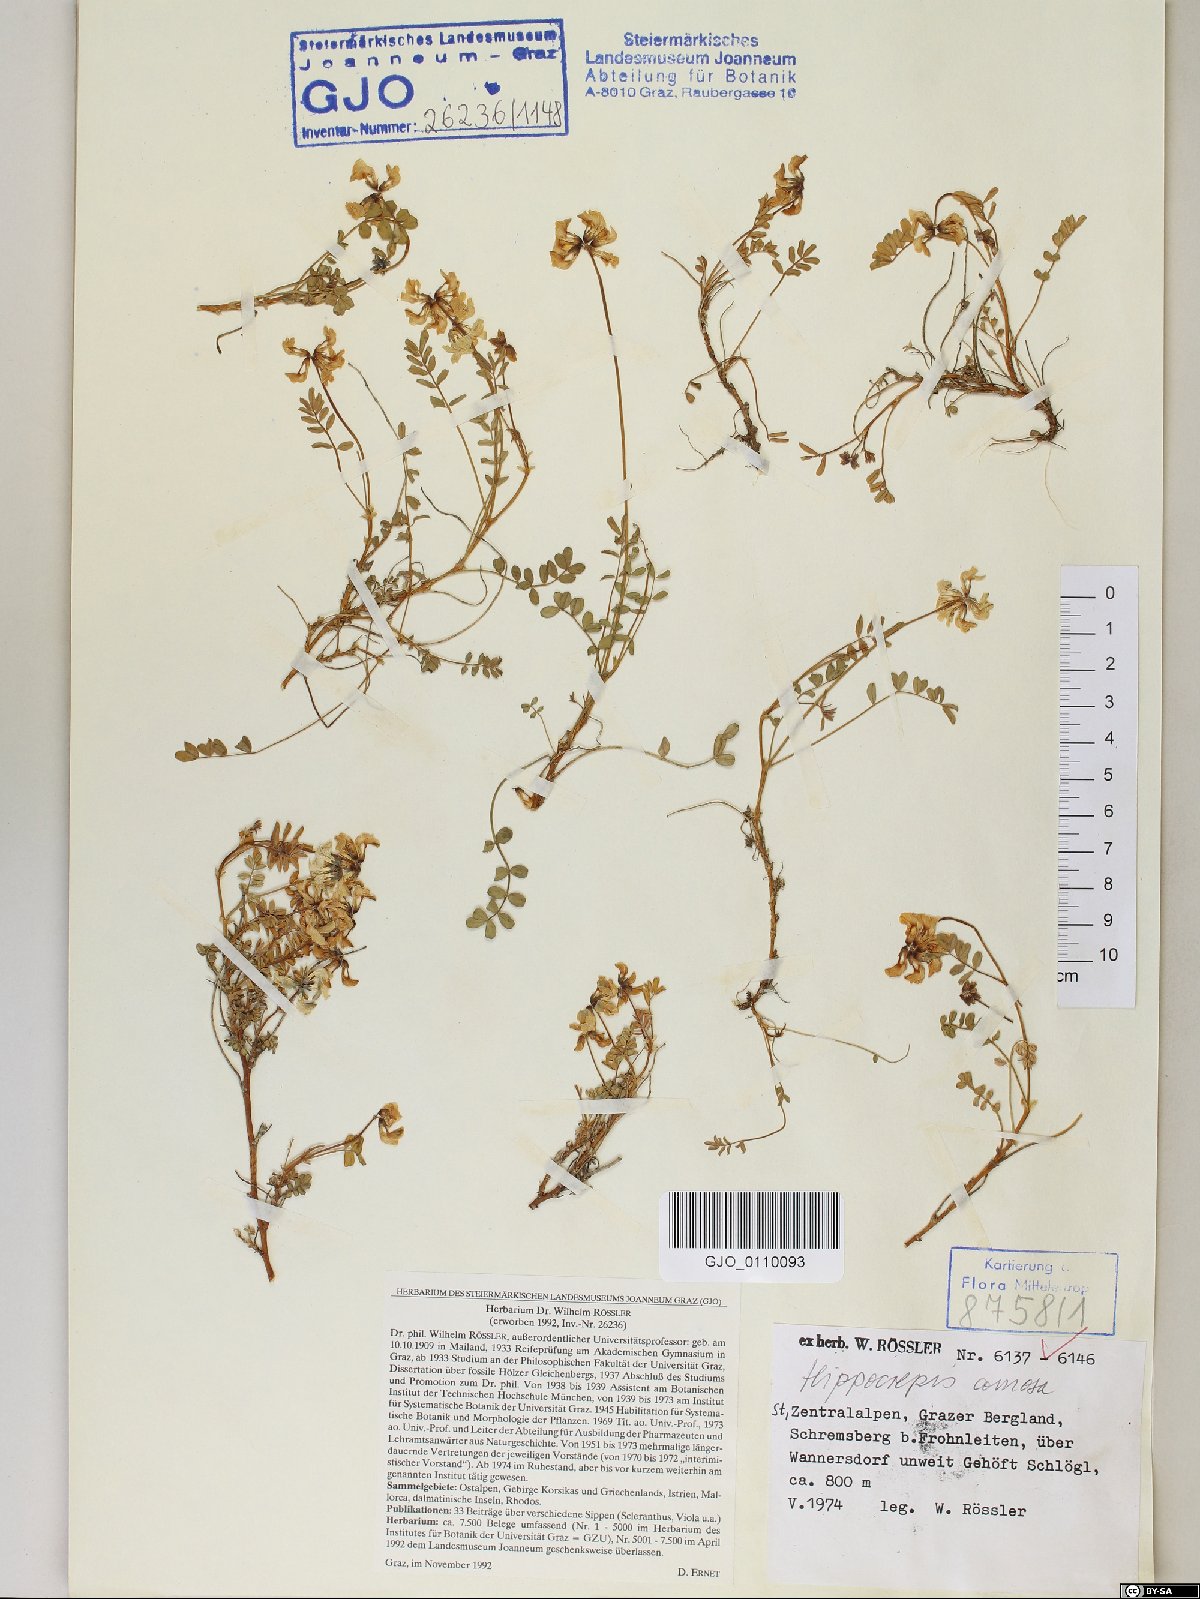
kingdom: Plantae
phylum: Tracheophyta
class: Magnoliopsida
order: Fabales
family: Fabaceae
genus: Hippocrepis
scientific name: Hippocrepis comosa
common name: Horseshoe vetch
